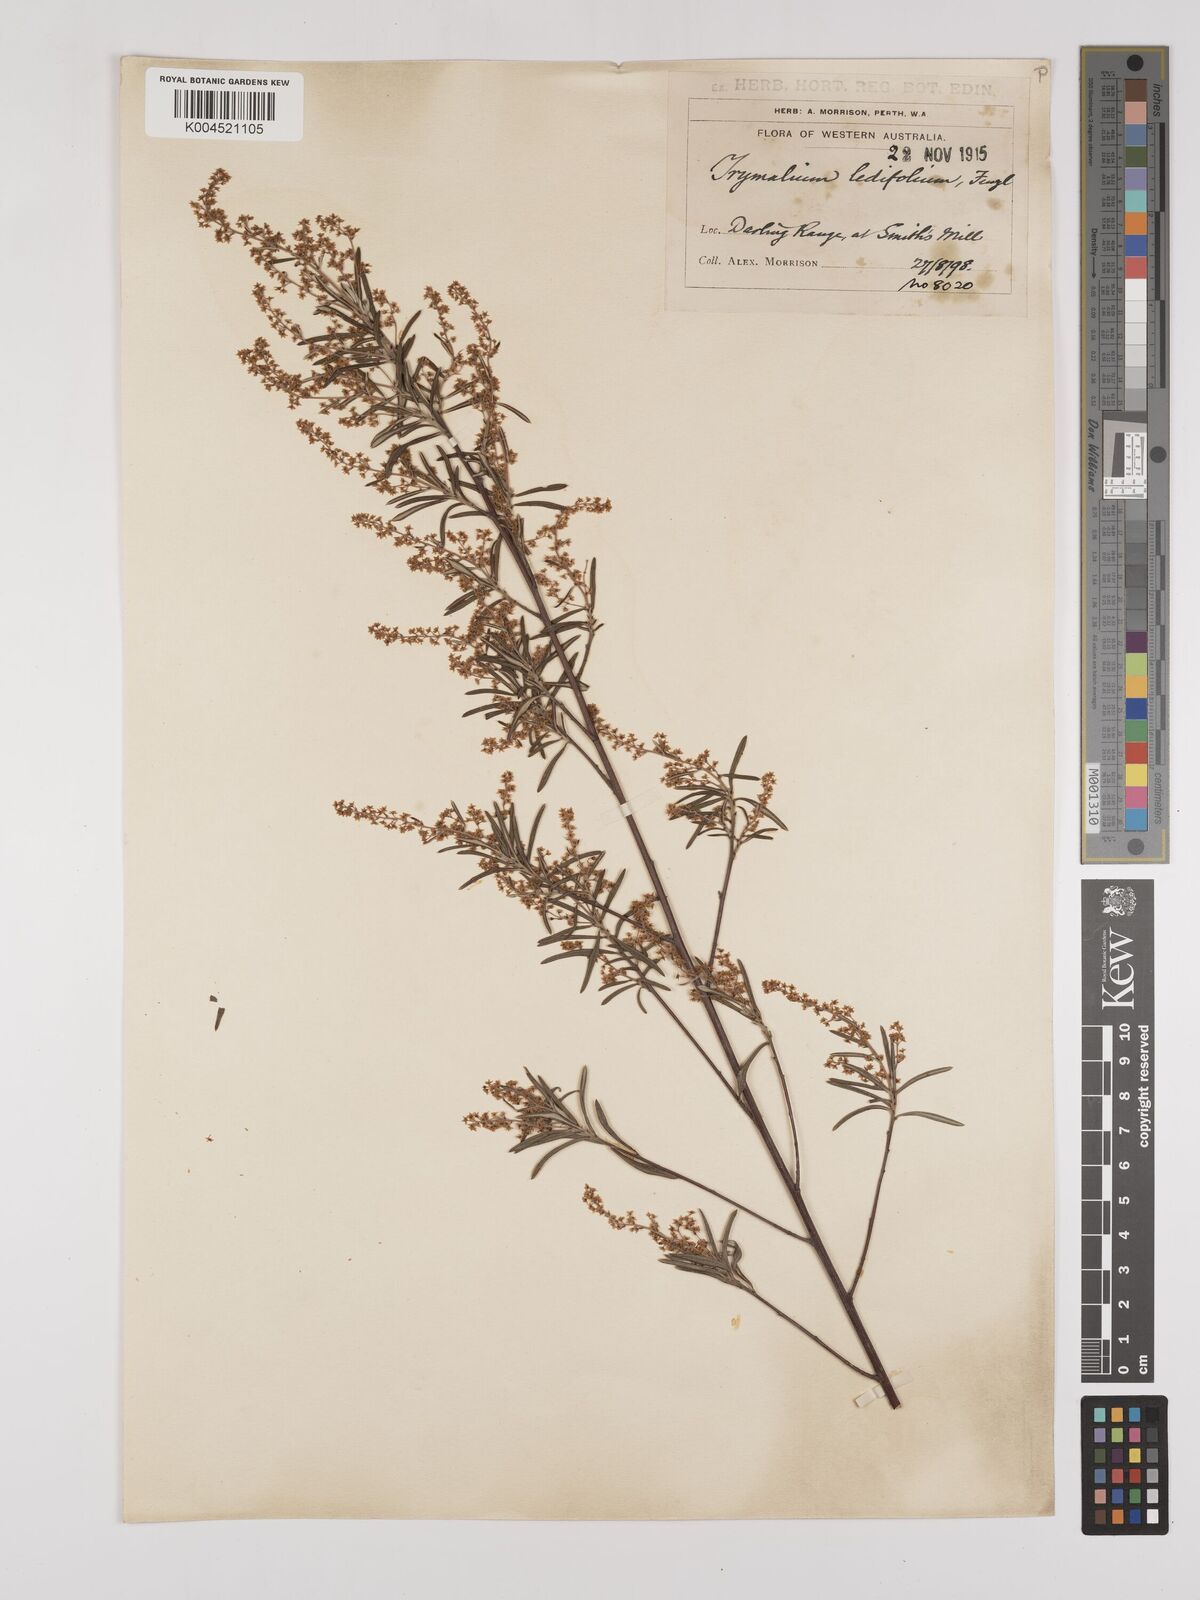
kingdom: Plantae
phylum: Tracheophyta
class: Magnoliopsida
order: Rosales
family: Rhamnaceae
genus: Trymalium
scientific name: Trymalium ledifolium
